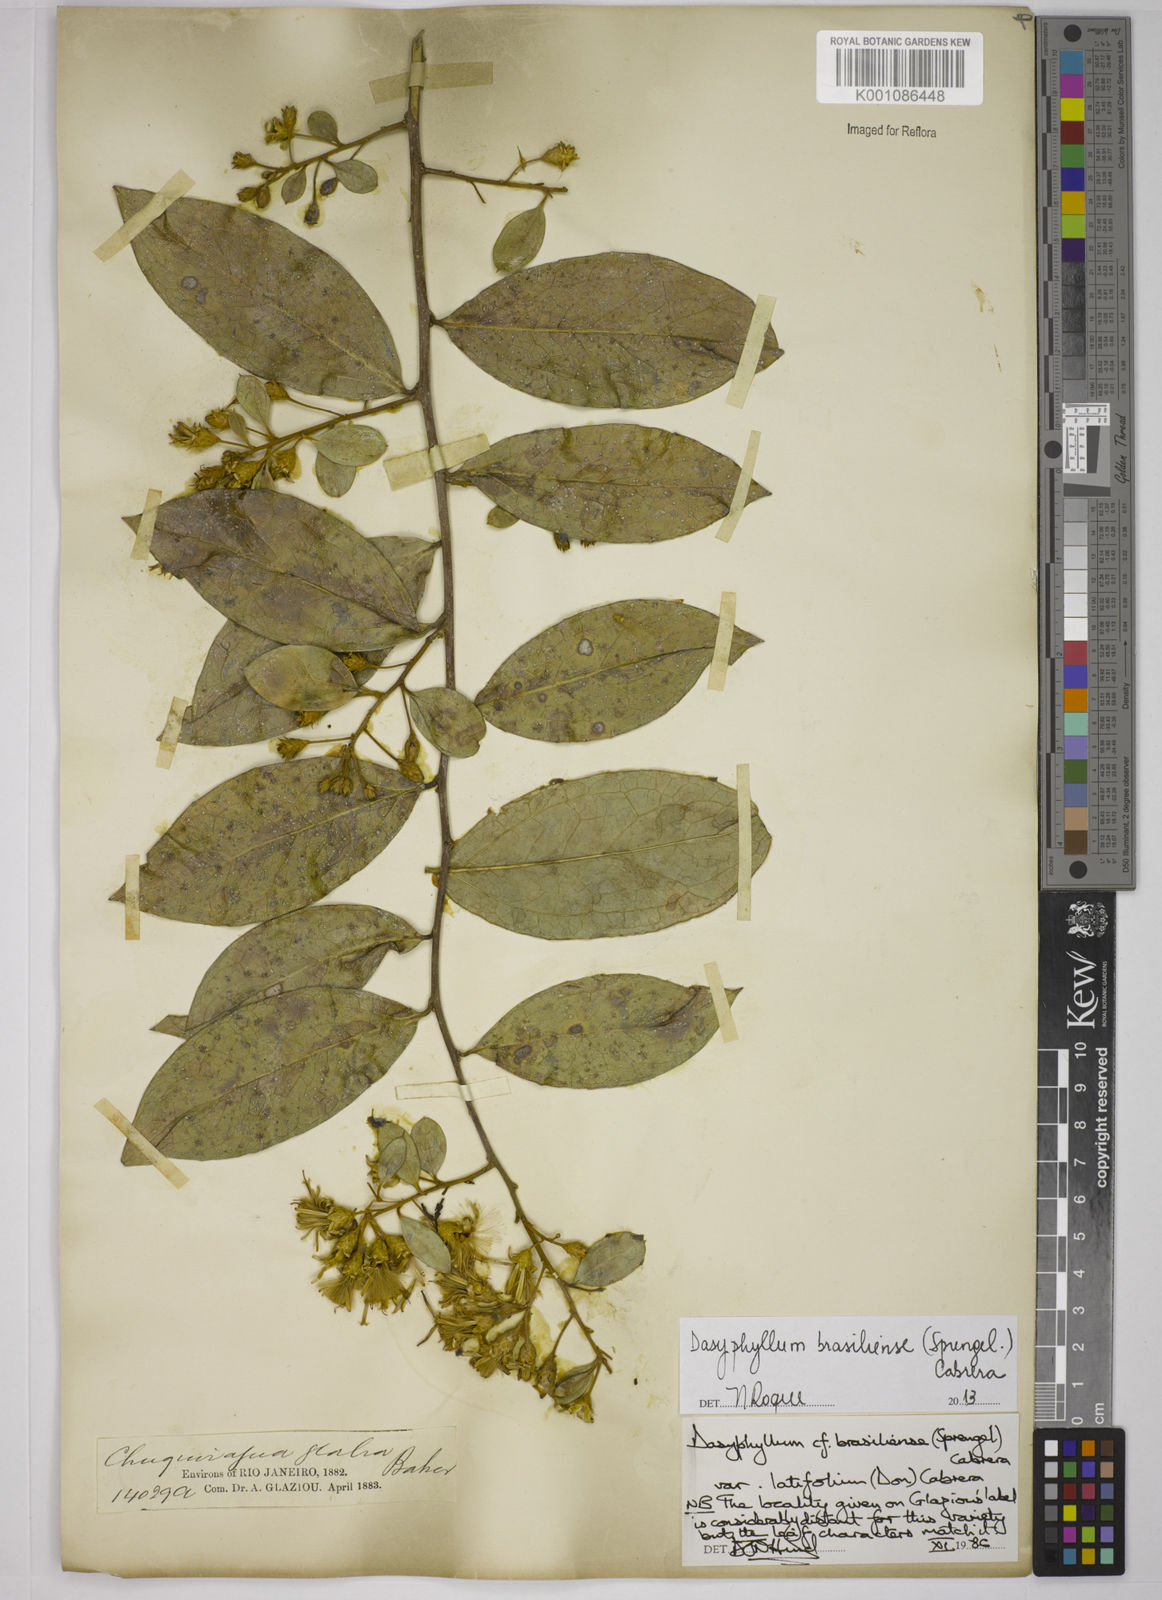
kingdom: Plantae
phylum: Tracheophyta
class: Magnoliopsida
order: Asterales
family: Asteraceae
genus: Dasyphyllum
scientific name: Dasyphyllum brasiliense
